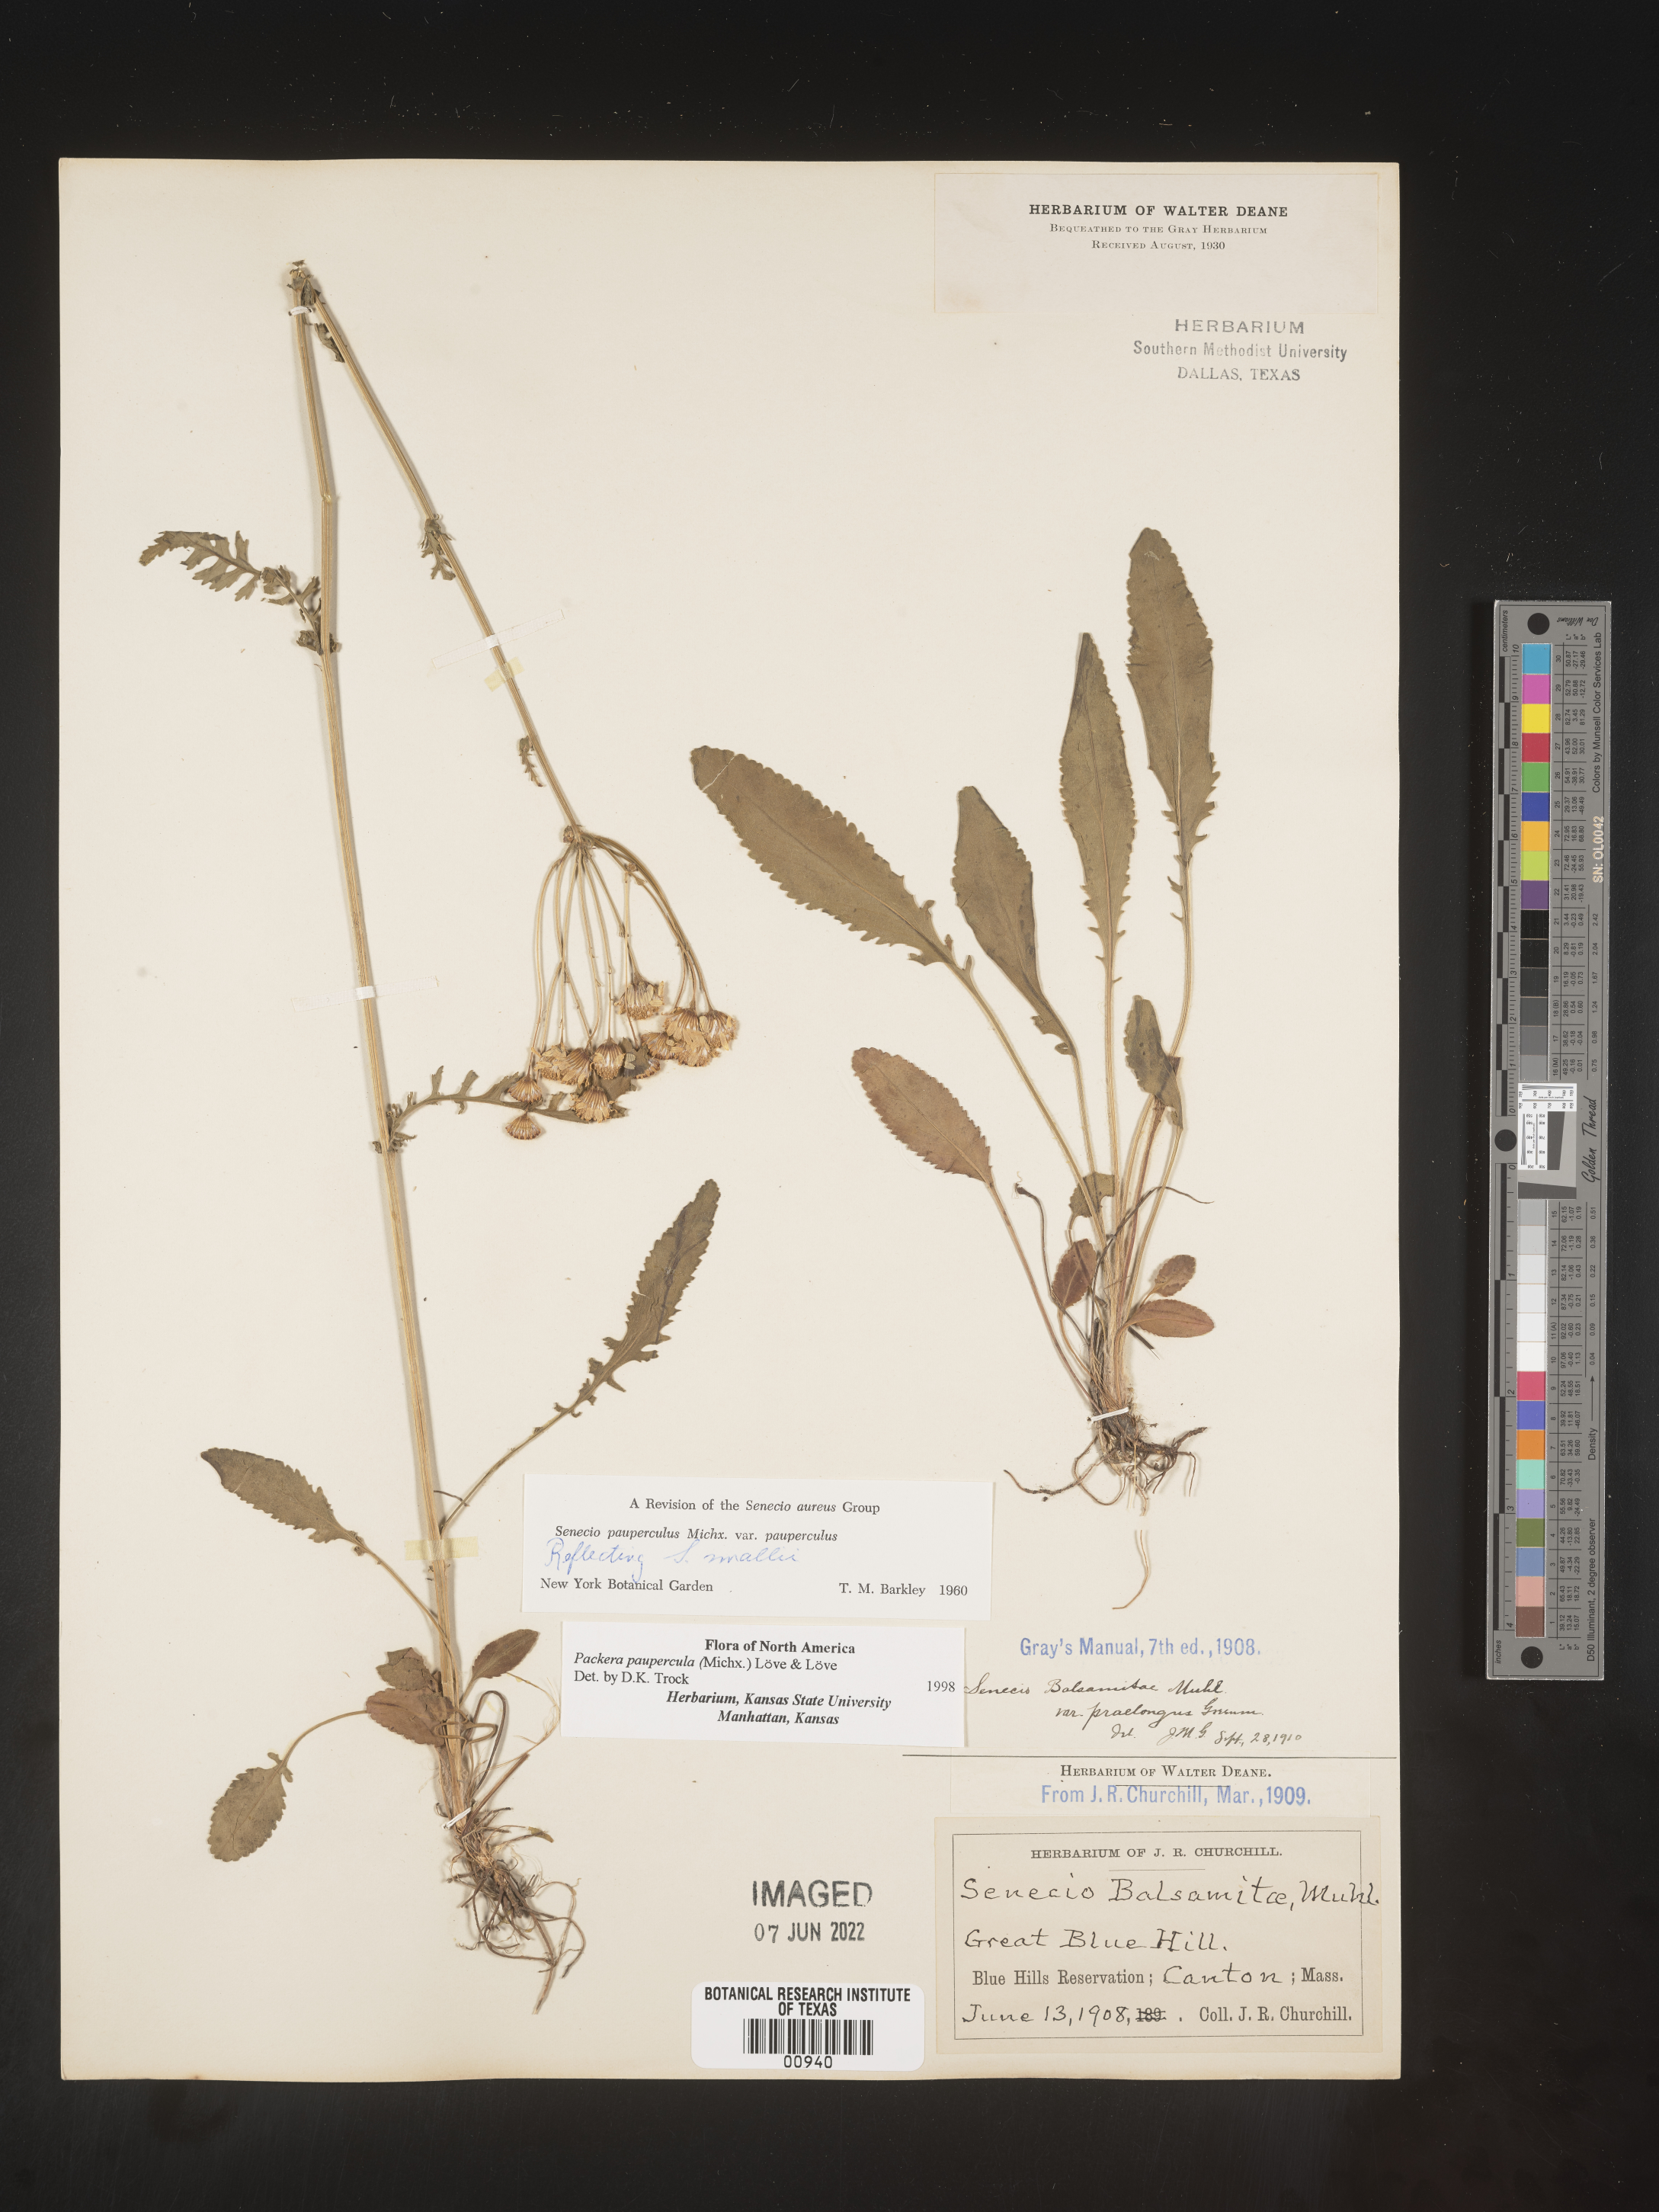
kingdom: Plantae
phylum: Tracheophyta
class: Magnoliopsida
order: Asterales
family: Asteraceae
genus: Packera
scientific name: Packera paupercula
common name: Balsam groundsel
